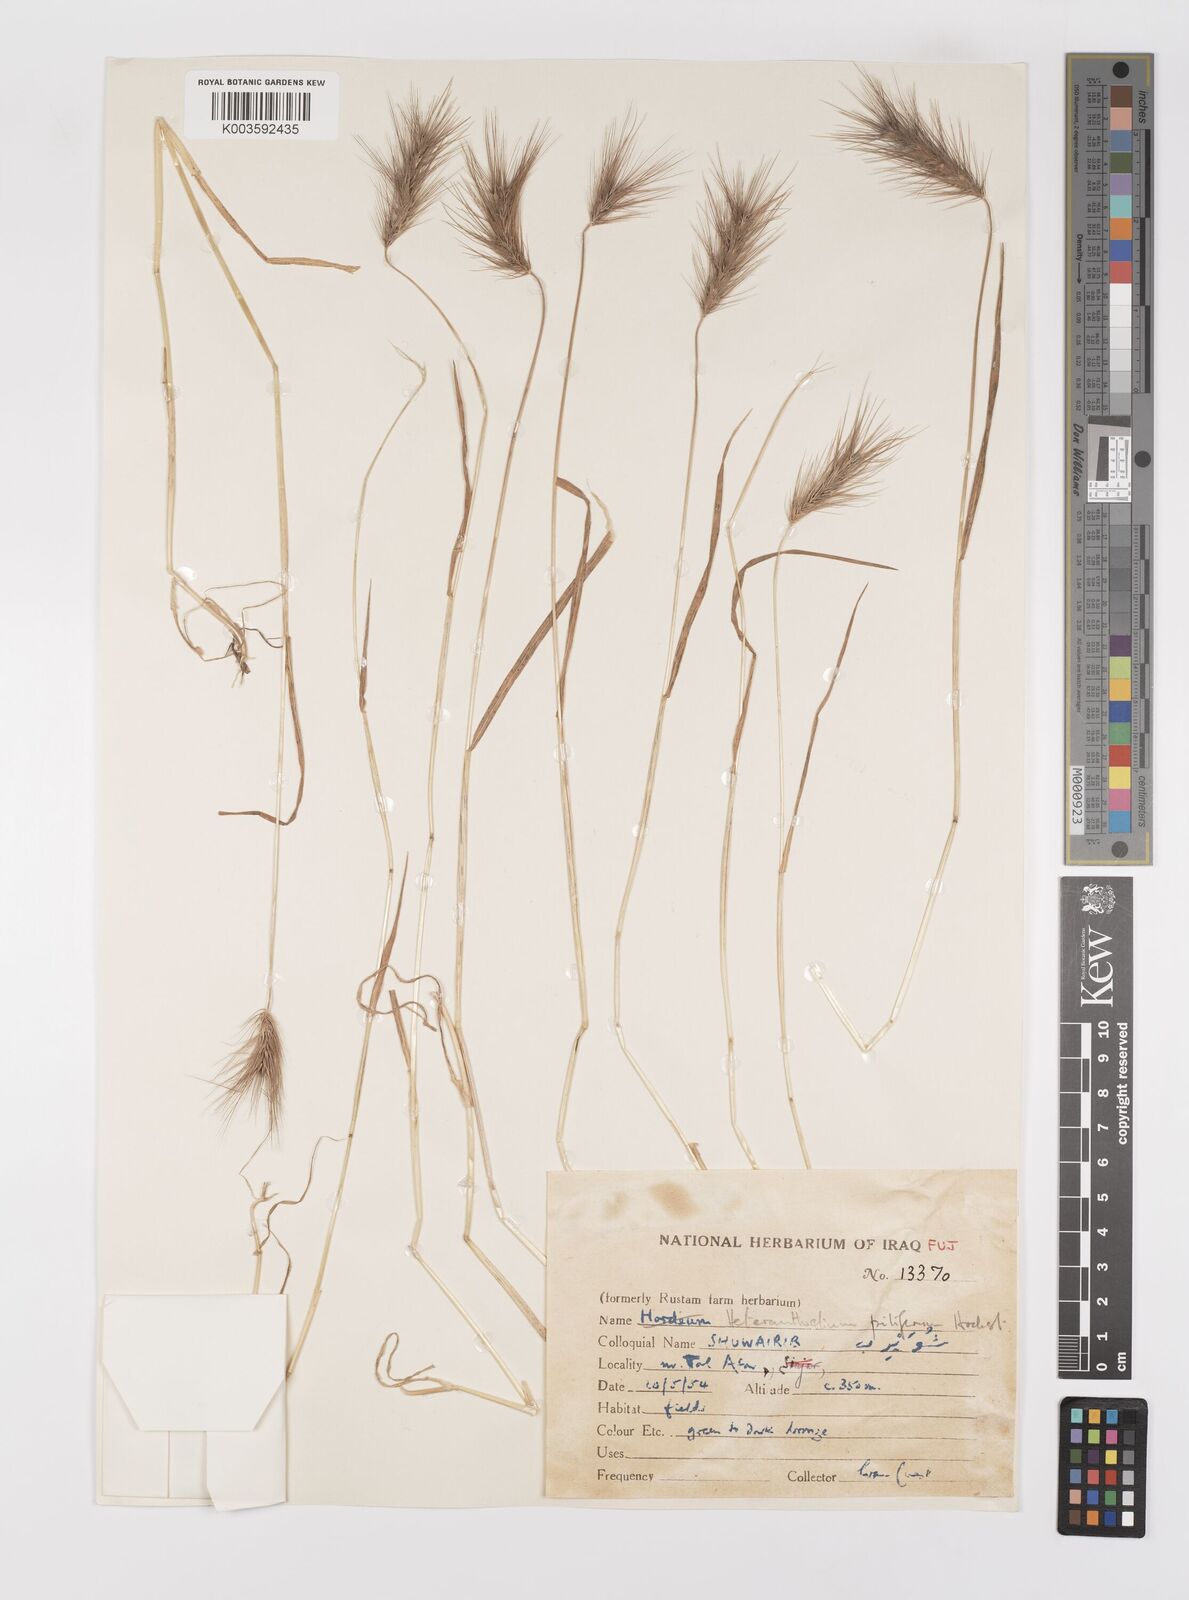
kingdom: Plantae
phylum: Tracheophyta
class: Liliopsida
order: Poales
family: Poaceae
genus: Heteranthelium
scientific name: Heteranthelium piliferum
